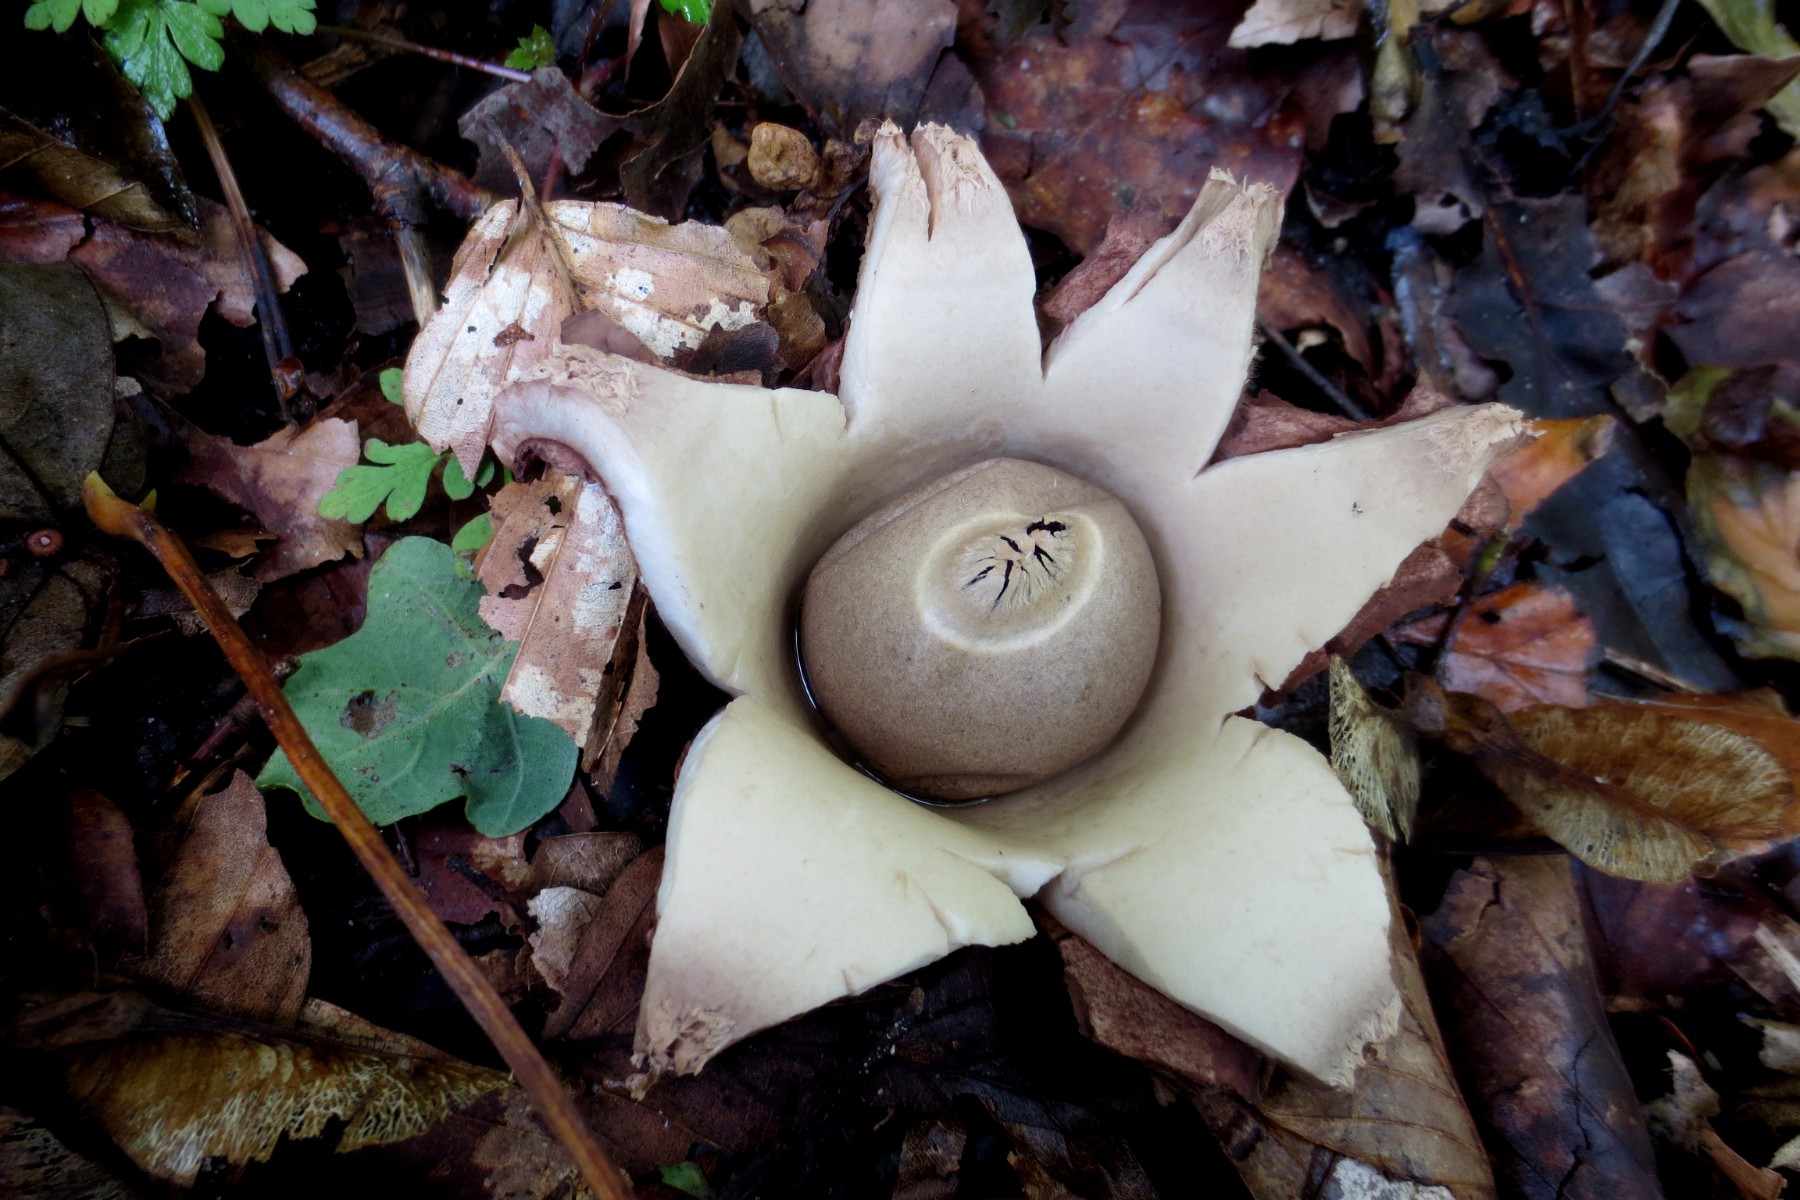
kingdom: Fungi
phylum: Basidiomycota
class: Agaricomycetes
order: Geastrales
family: Geastraceae
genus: Geastrum
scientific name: Geastrum michelianum
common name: kødet stjernebold
